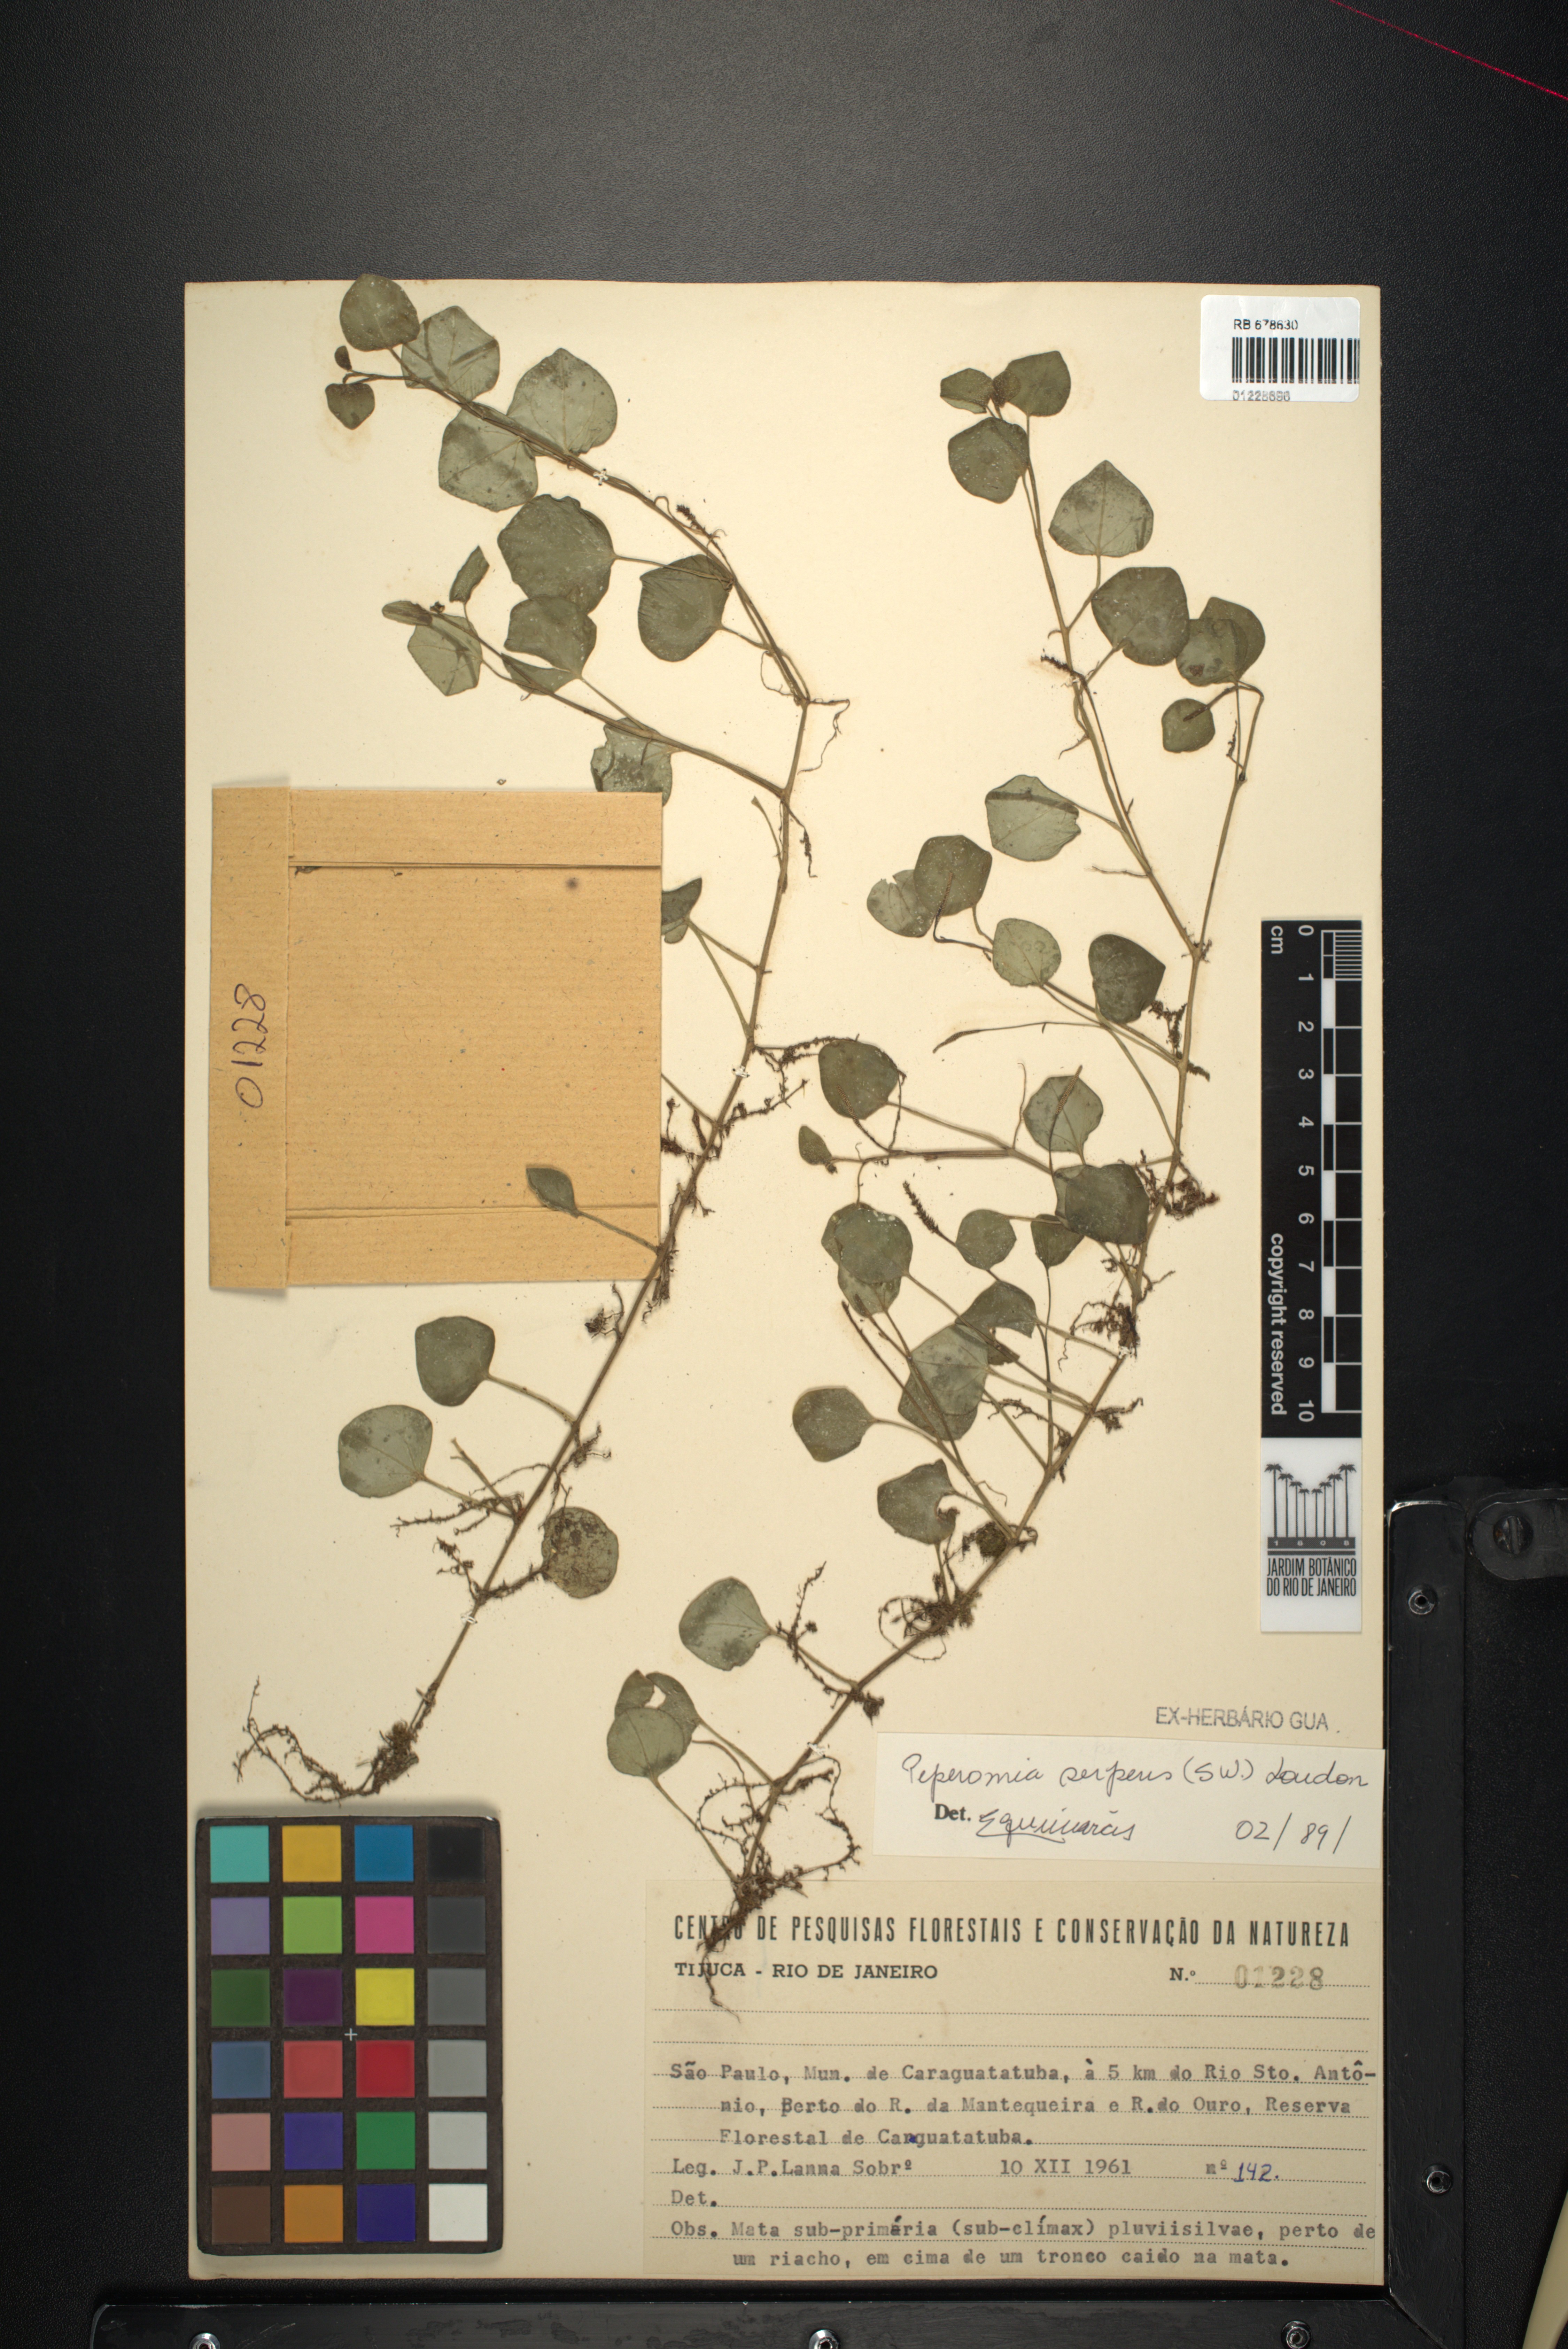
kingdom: Plantae
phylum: Tracheophyta
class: Magnoliopsida
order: Piperales
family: Piperaceae
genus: Peperomia
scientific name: Peperomia serpens
